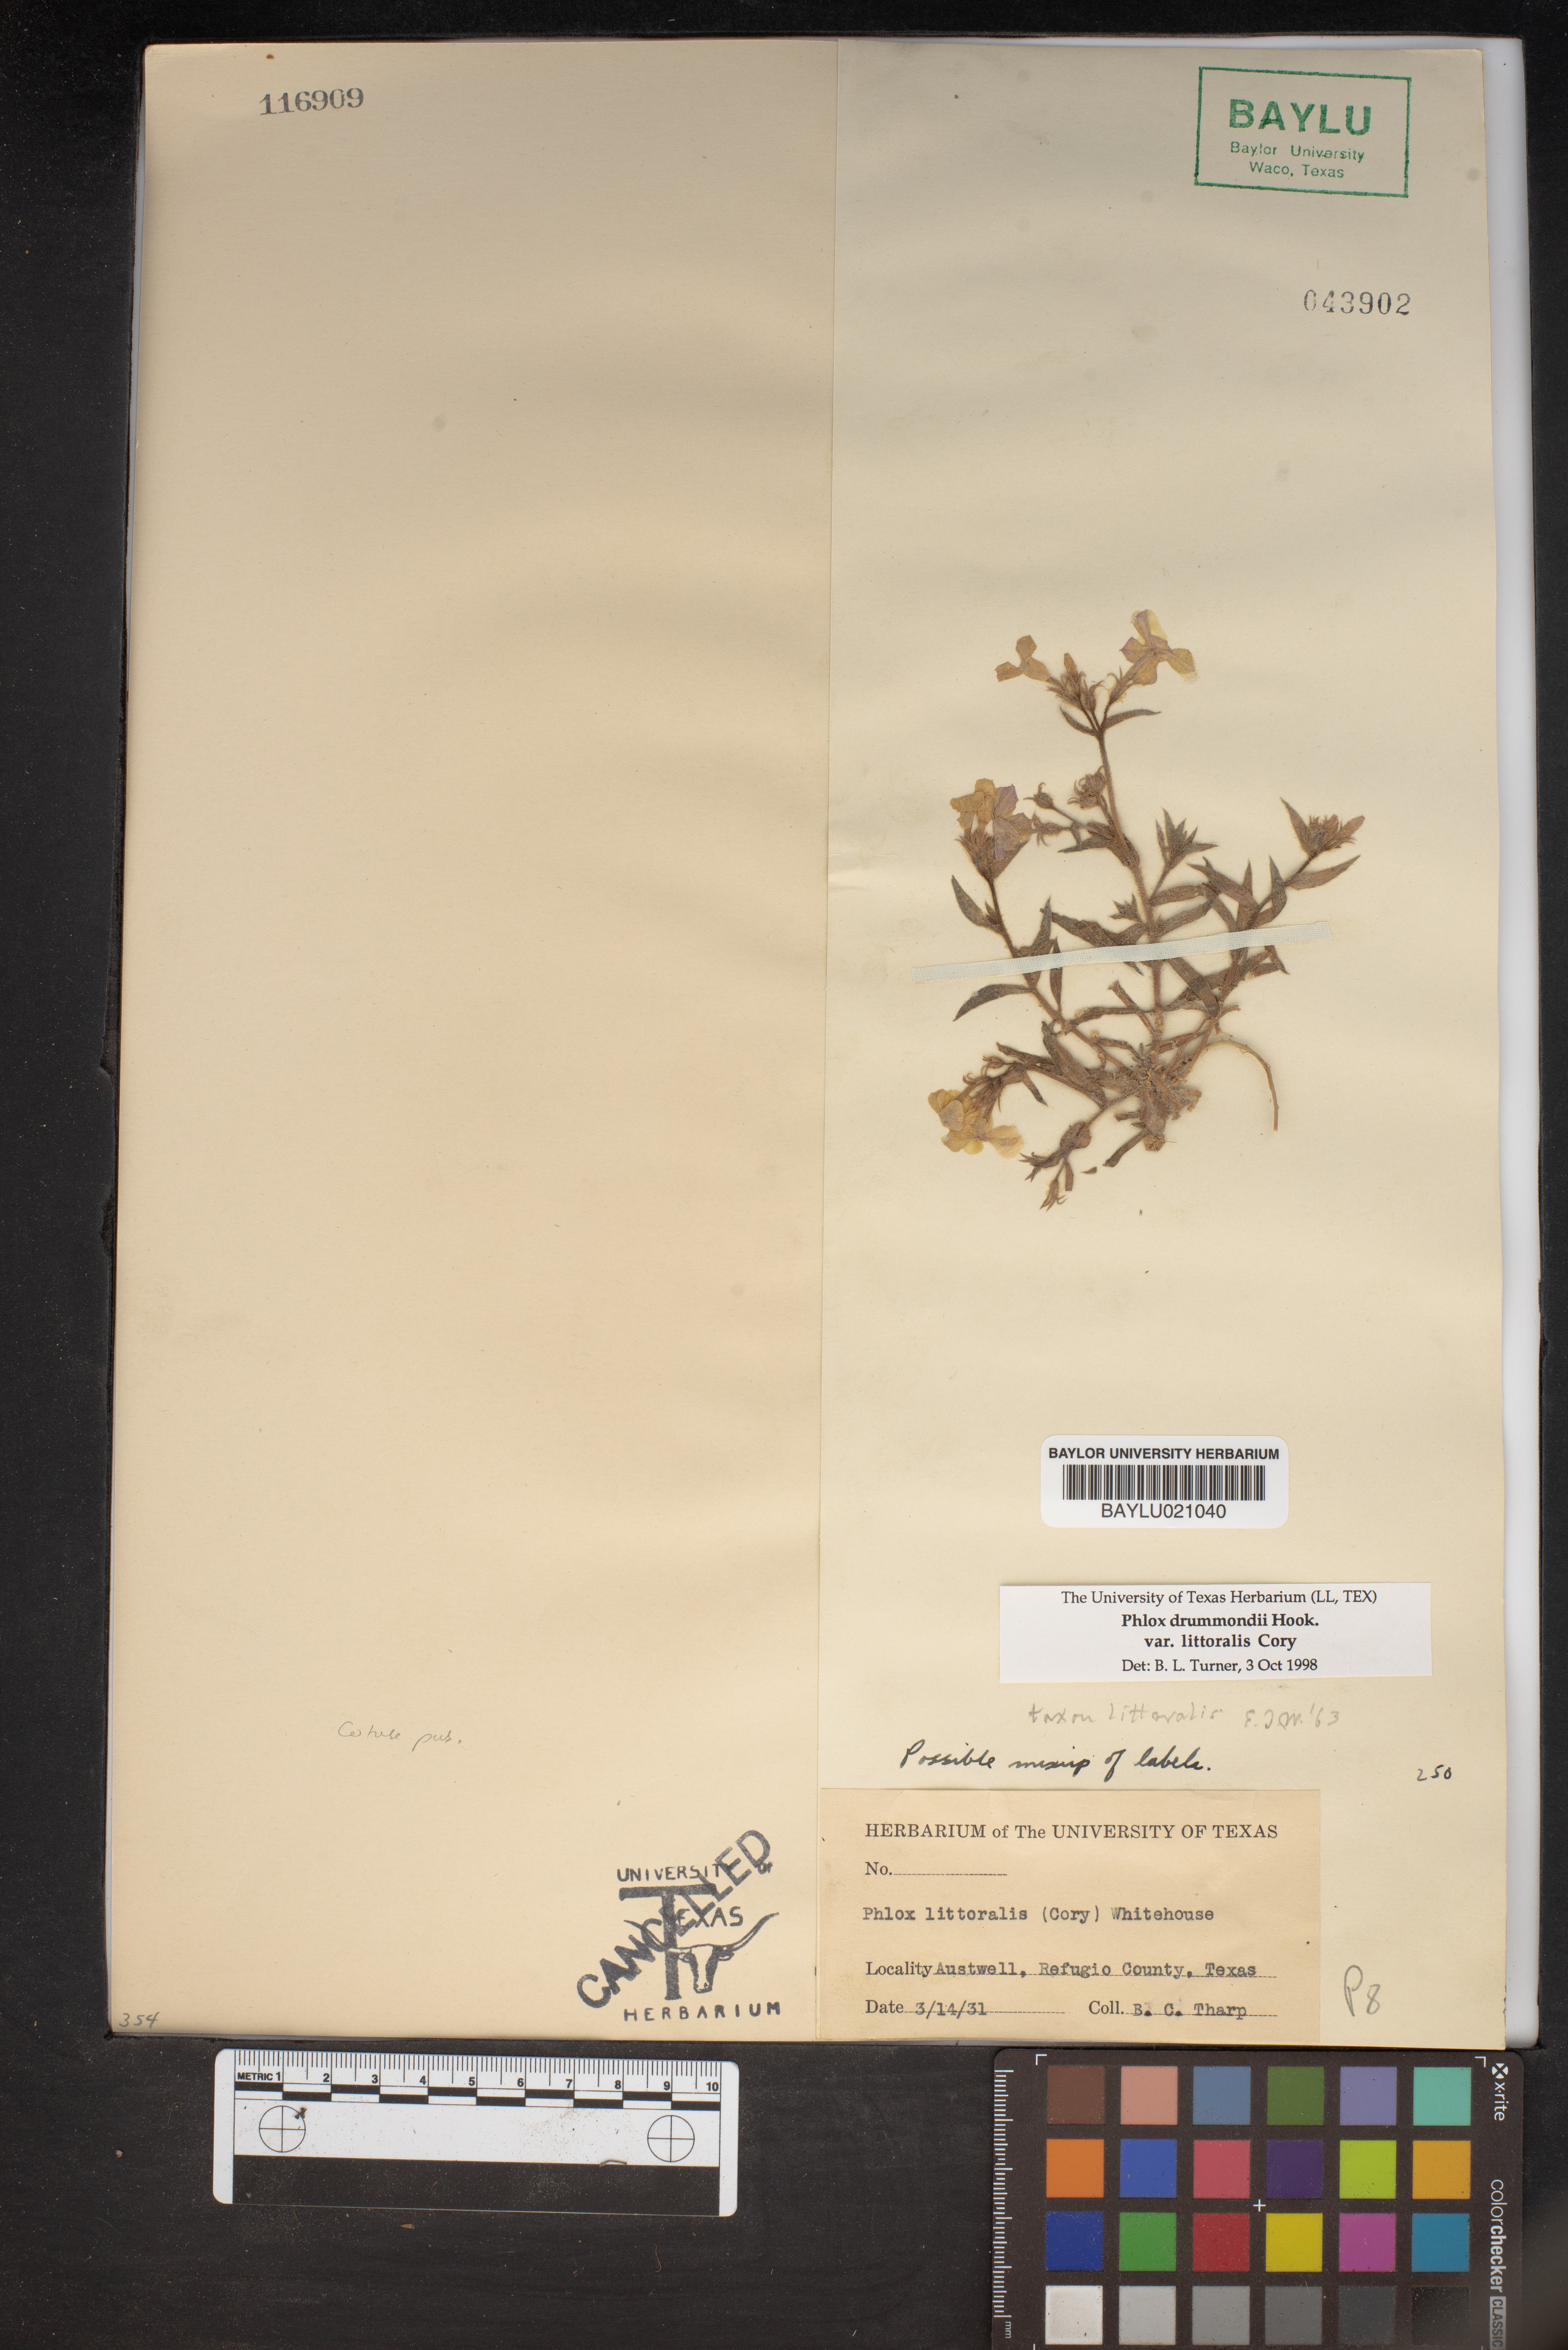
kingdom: Plantae
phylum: Tracheophyta
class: Magnoliopsida
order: Ericales
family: Polemoniaceae
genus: Phlox
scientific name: Phlox glabriflora
